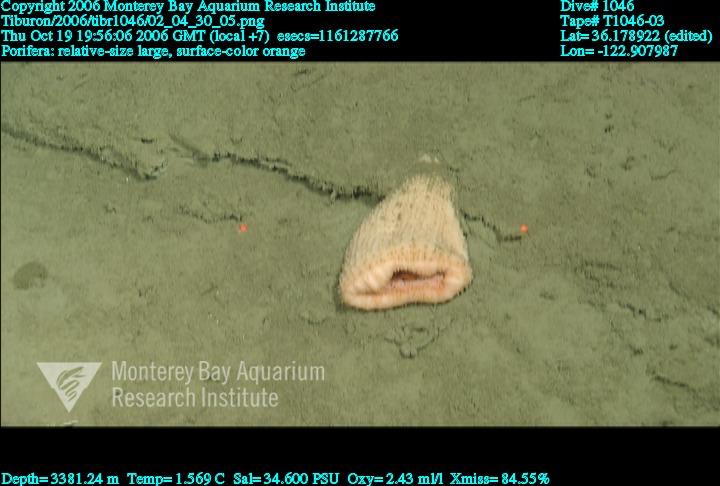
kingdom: Animalia
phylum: Porifera
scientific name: Porifera
